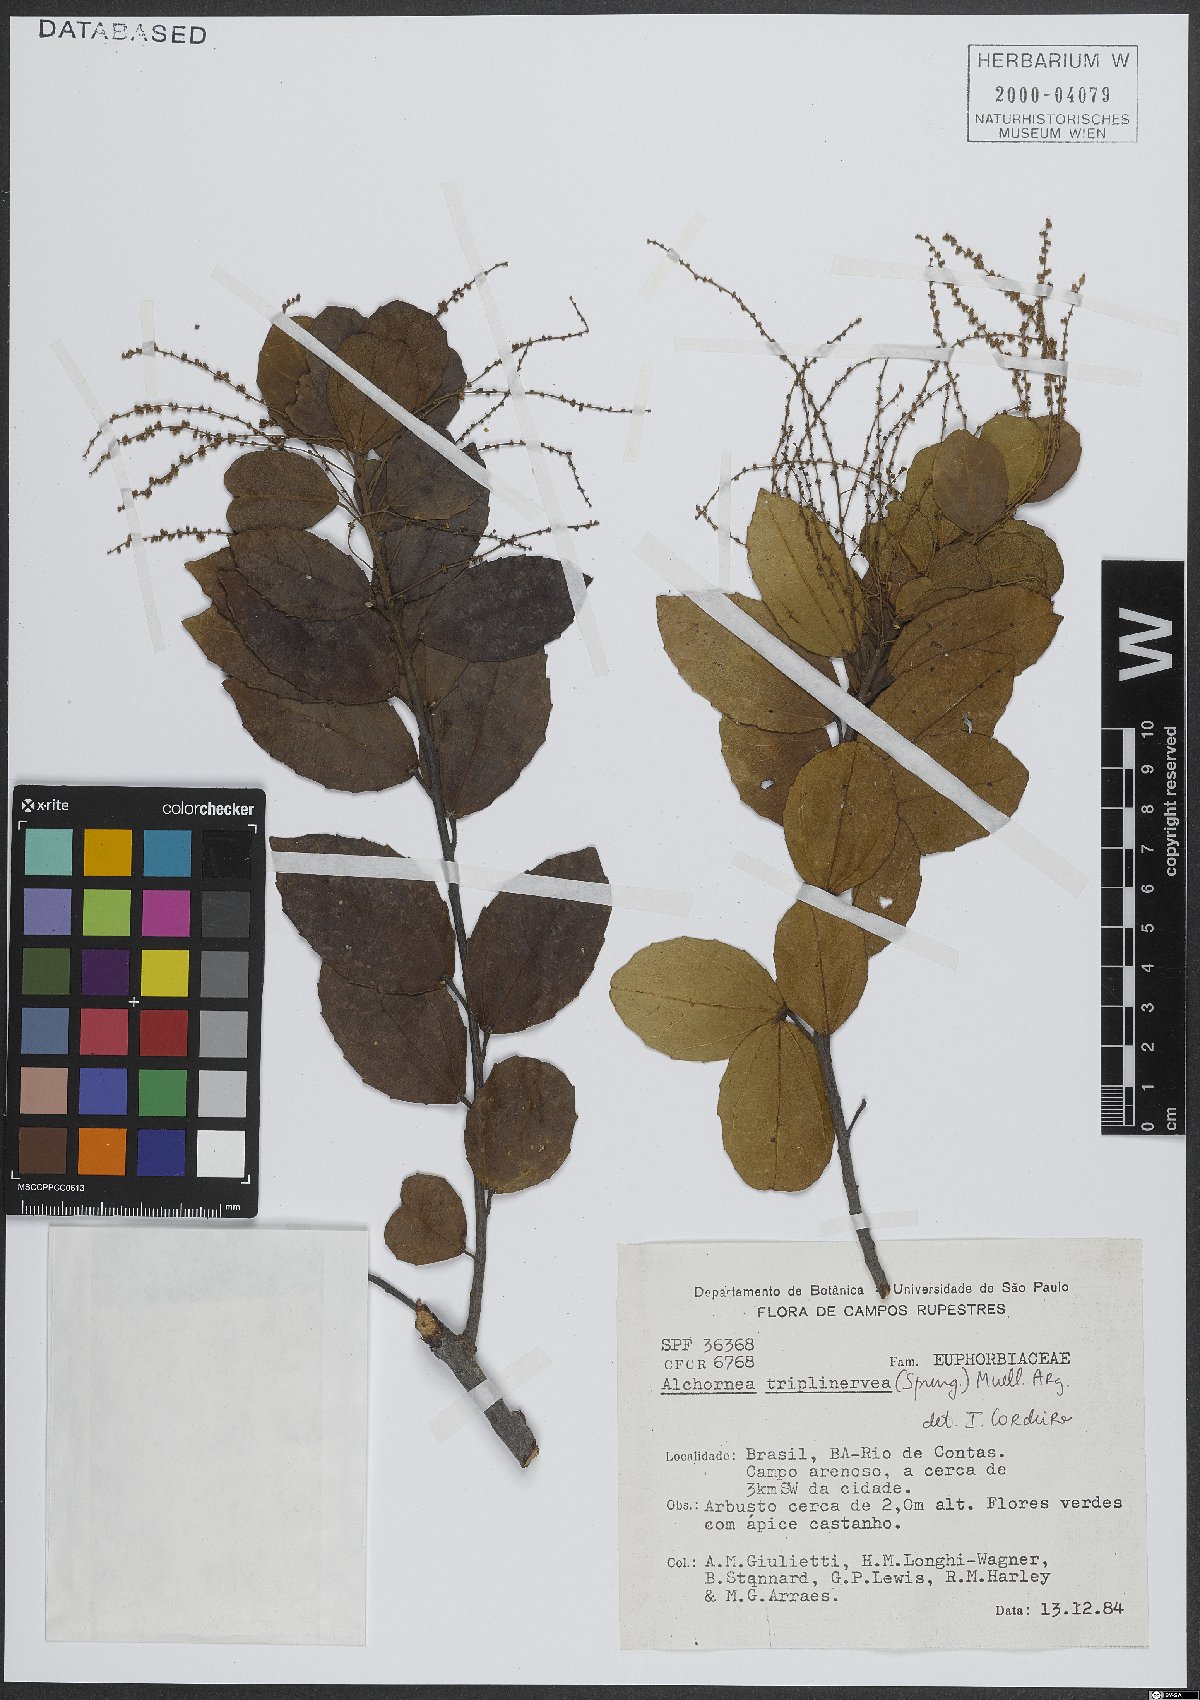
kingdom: Plantae
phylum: Tracheophyta
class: Magnoliopsida
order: Malpighiales
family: Euphorbiaceae
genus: Alchornea
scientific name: Alchornea triplinervia
